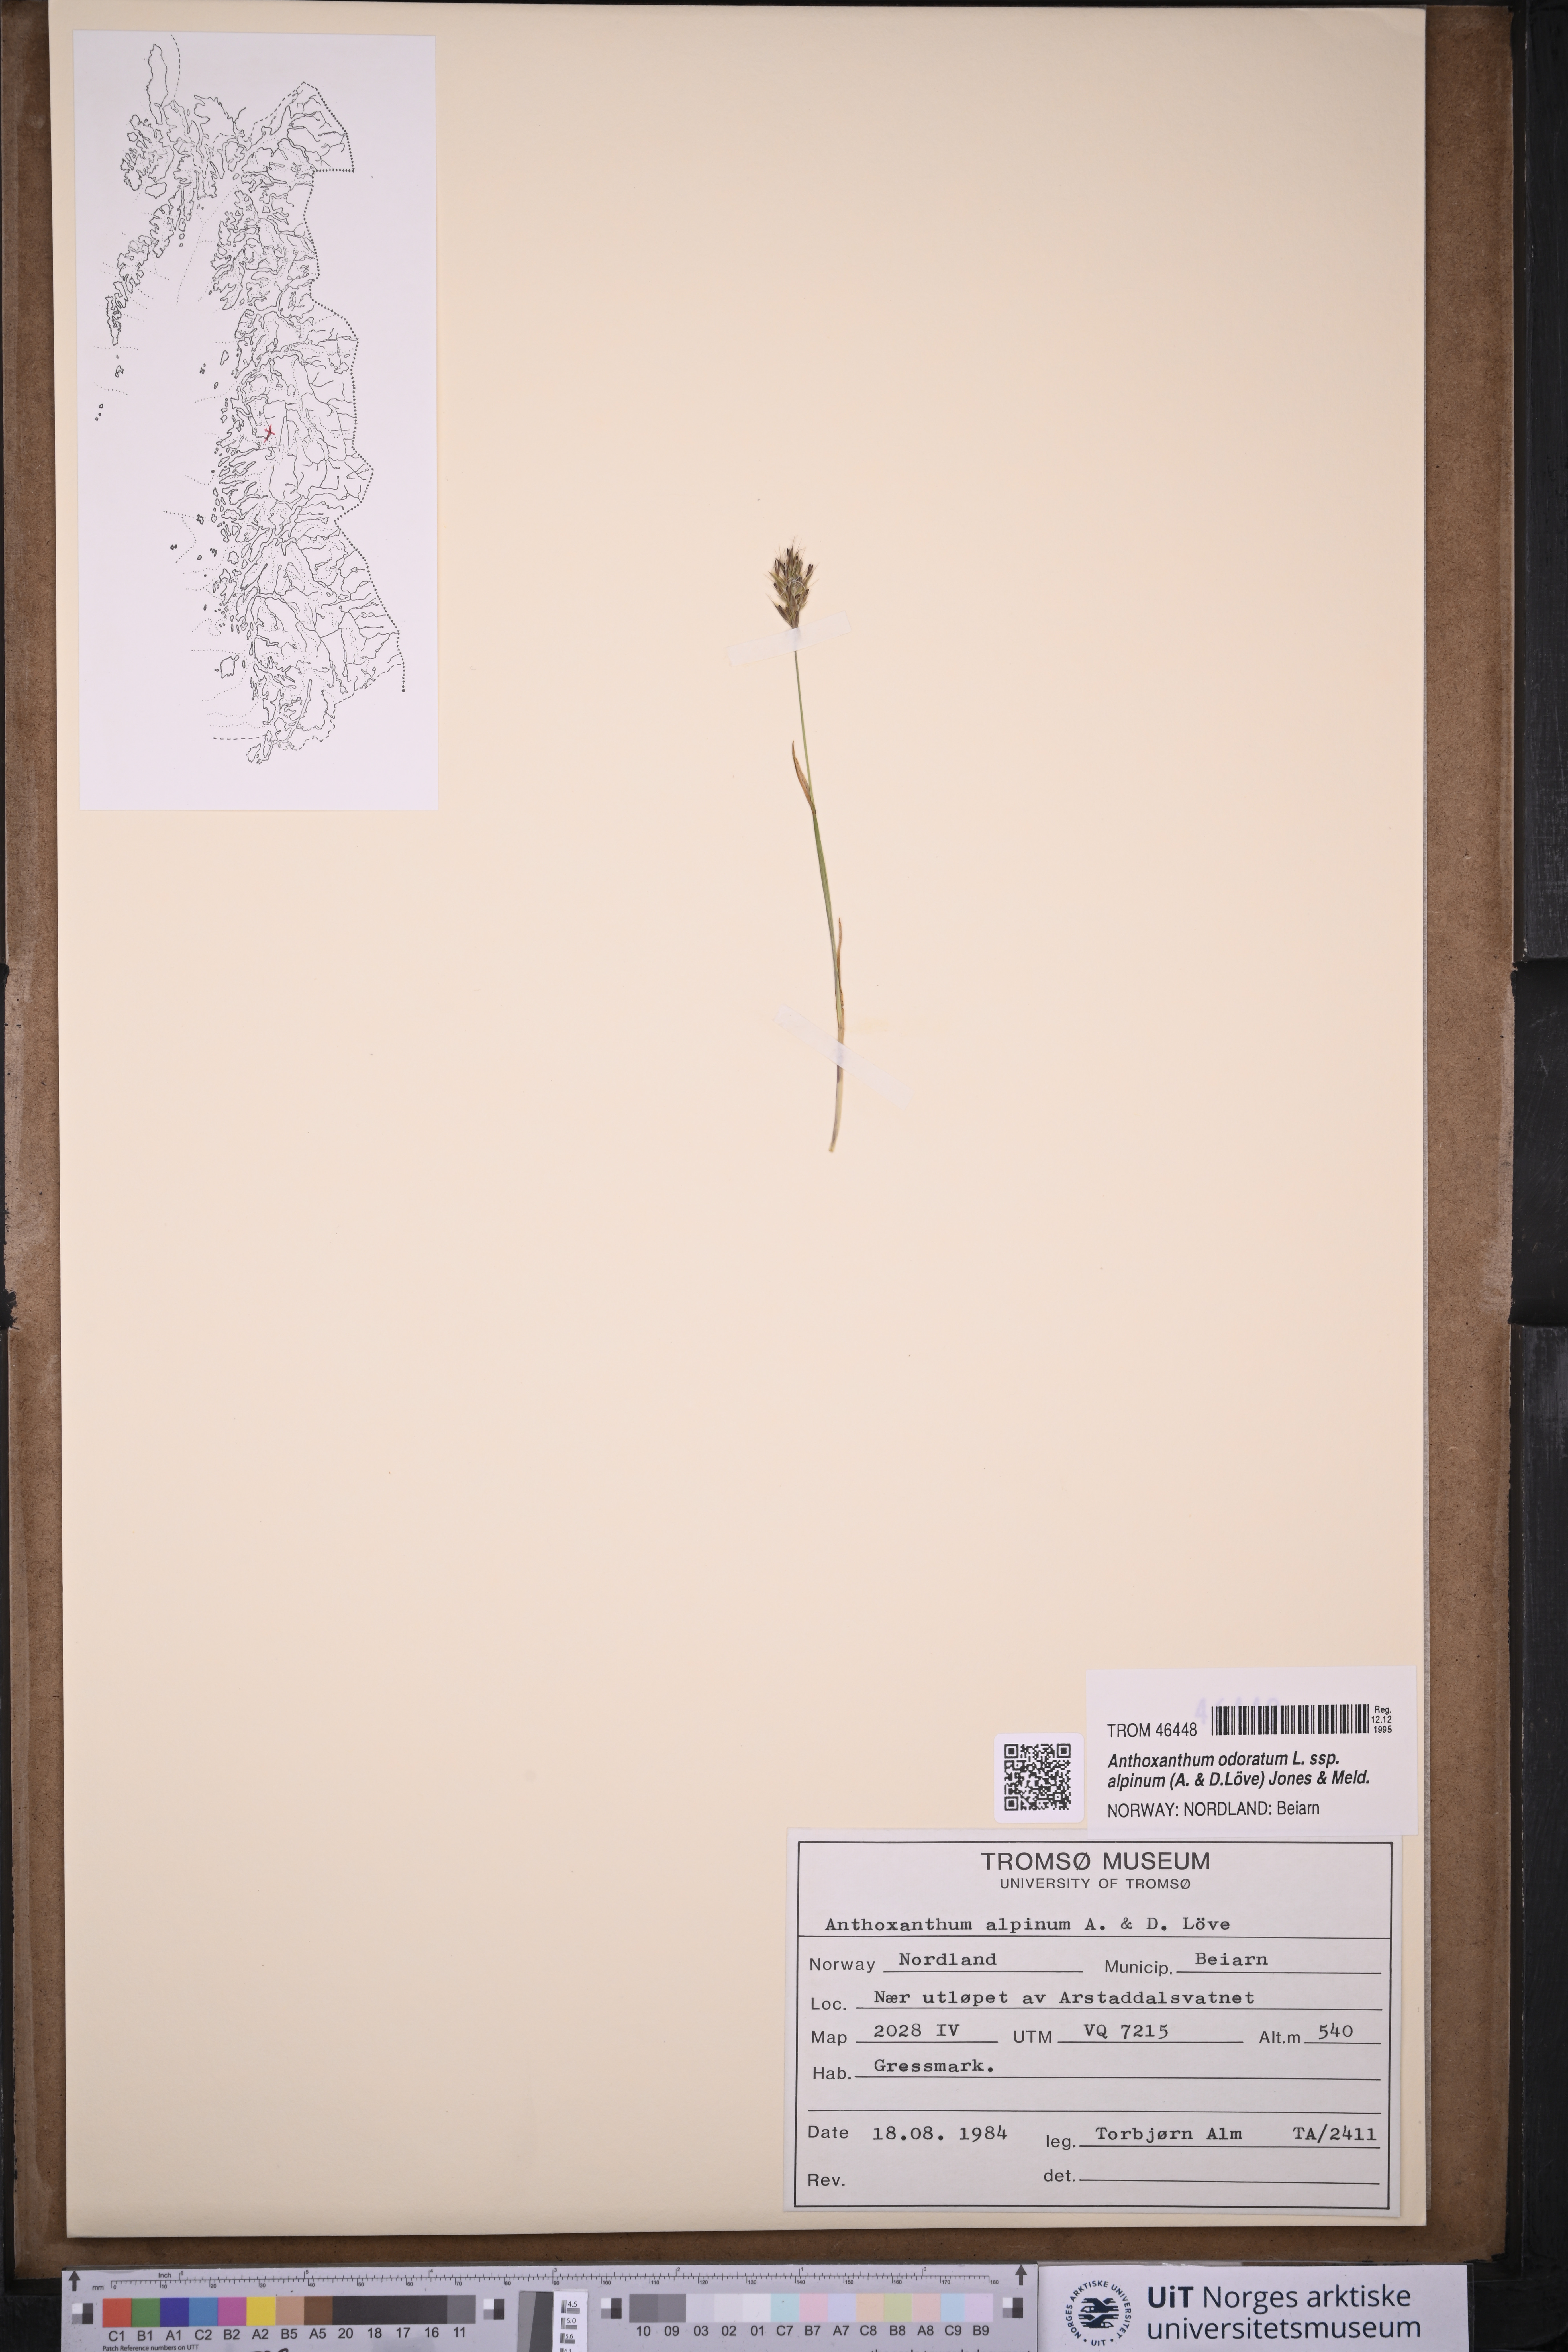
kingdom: Plantae
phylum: Tracheophyta
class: Liliopsida
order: Poales
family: Poaceae
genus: Anthoxanthum
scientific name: Anthoxanthum nipponicum
